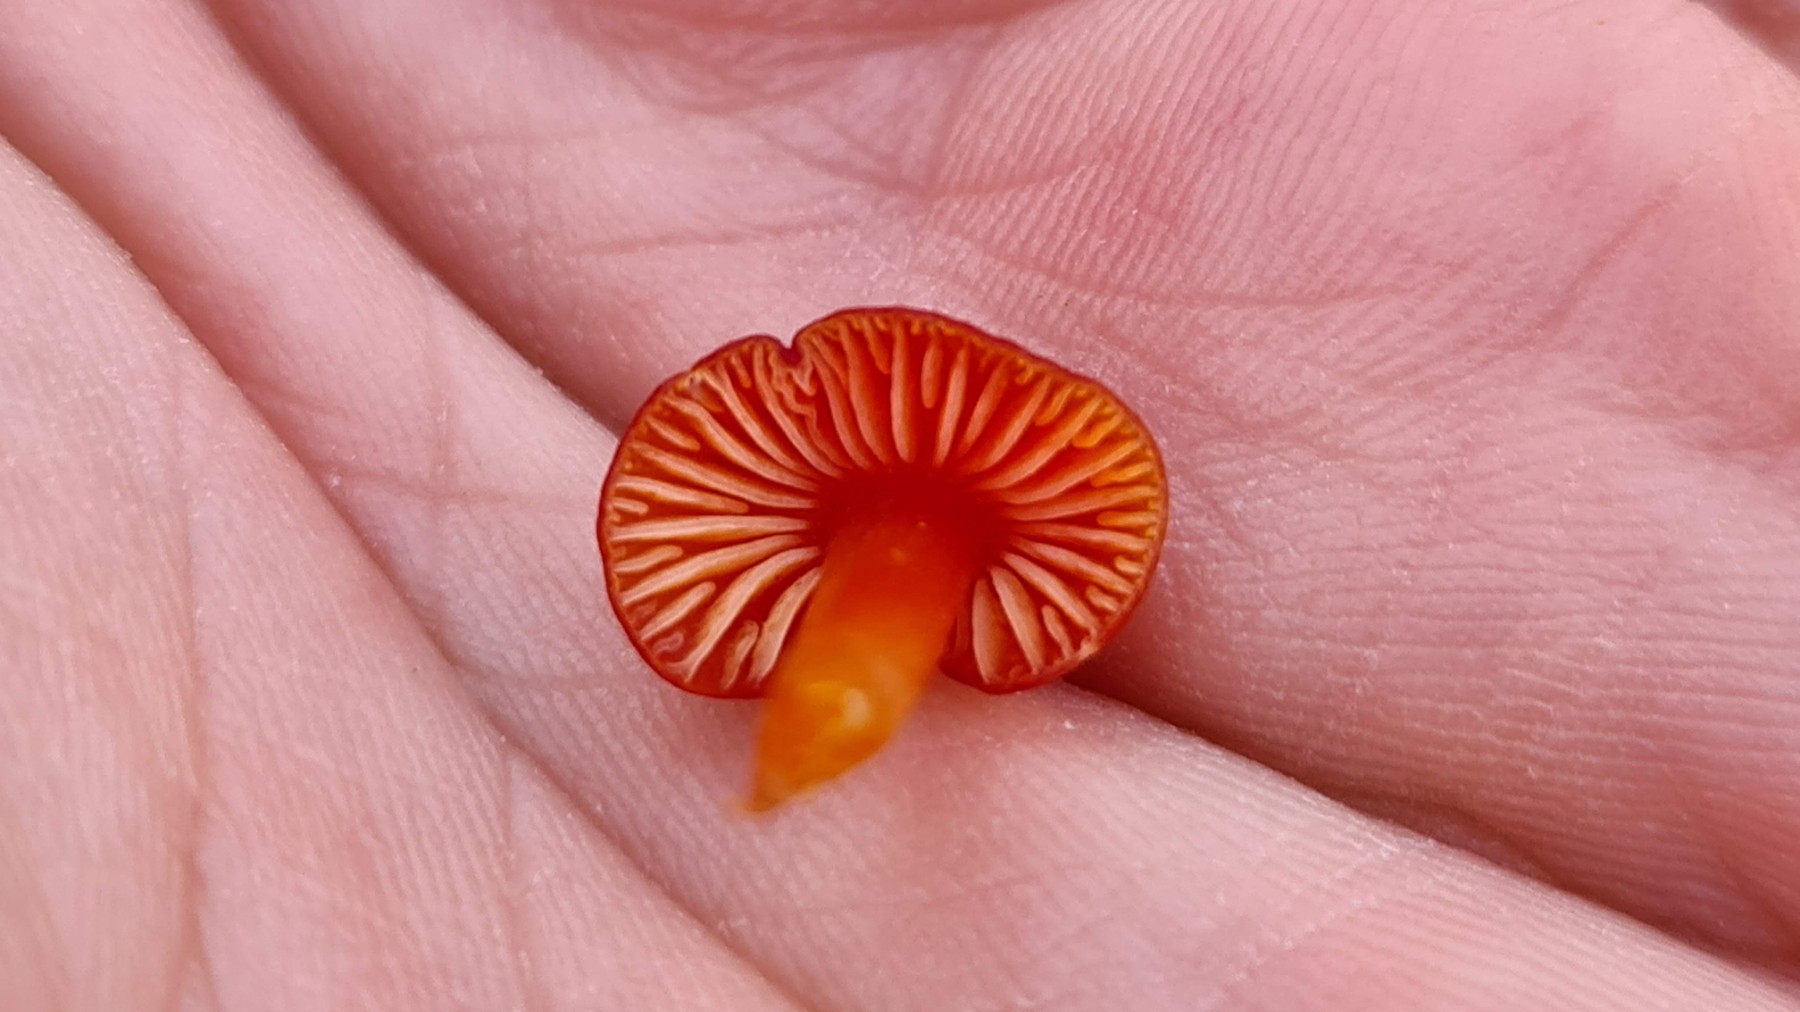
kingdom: Fungi
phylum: Basidiomycota
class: Agaricomycetes
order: Agaricales
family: Hygrophoraceae
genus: Hygrocybe
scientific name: Hygrocybe miniata
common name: mønje-vokshat
